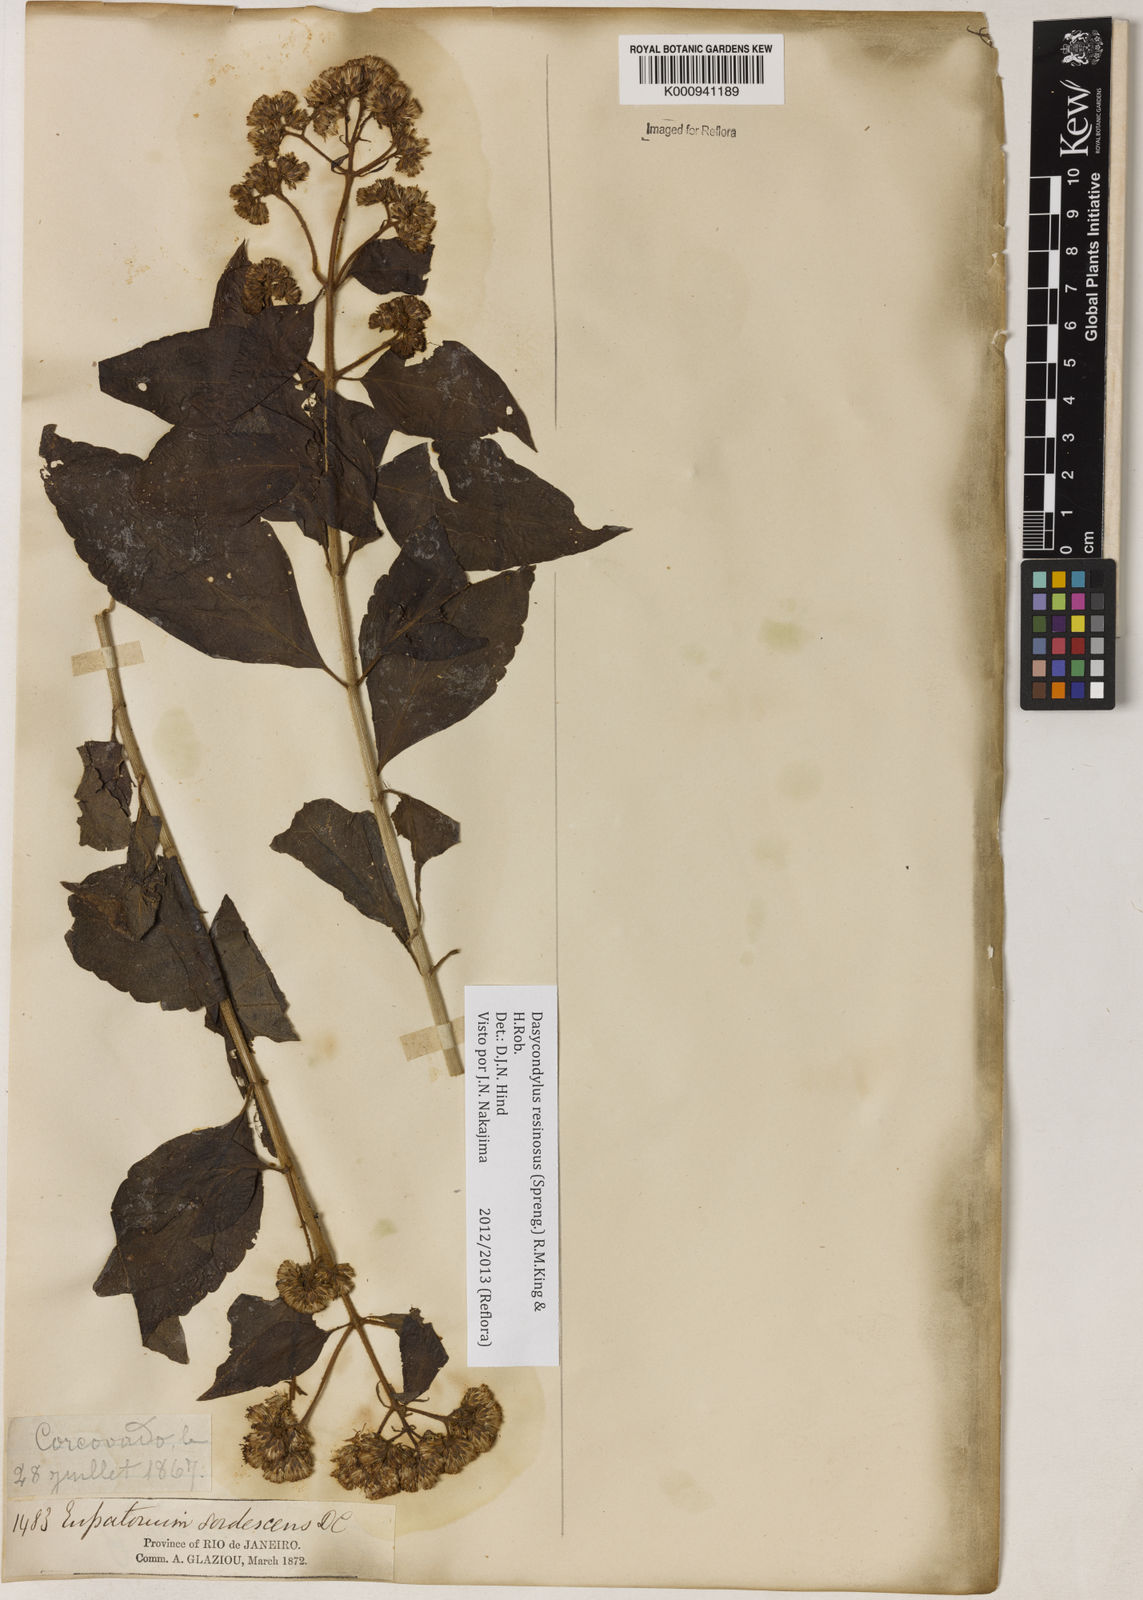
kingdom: Plantae
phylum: Tracheophyta
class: Magnoliopsida
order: Asterales
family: Asteraceae
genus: Dasycondylus
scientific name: Dasycondylus resinosus
